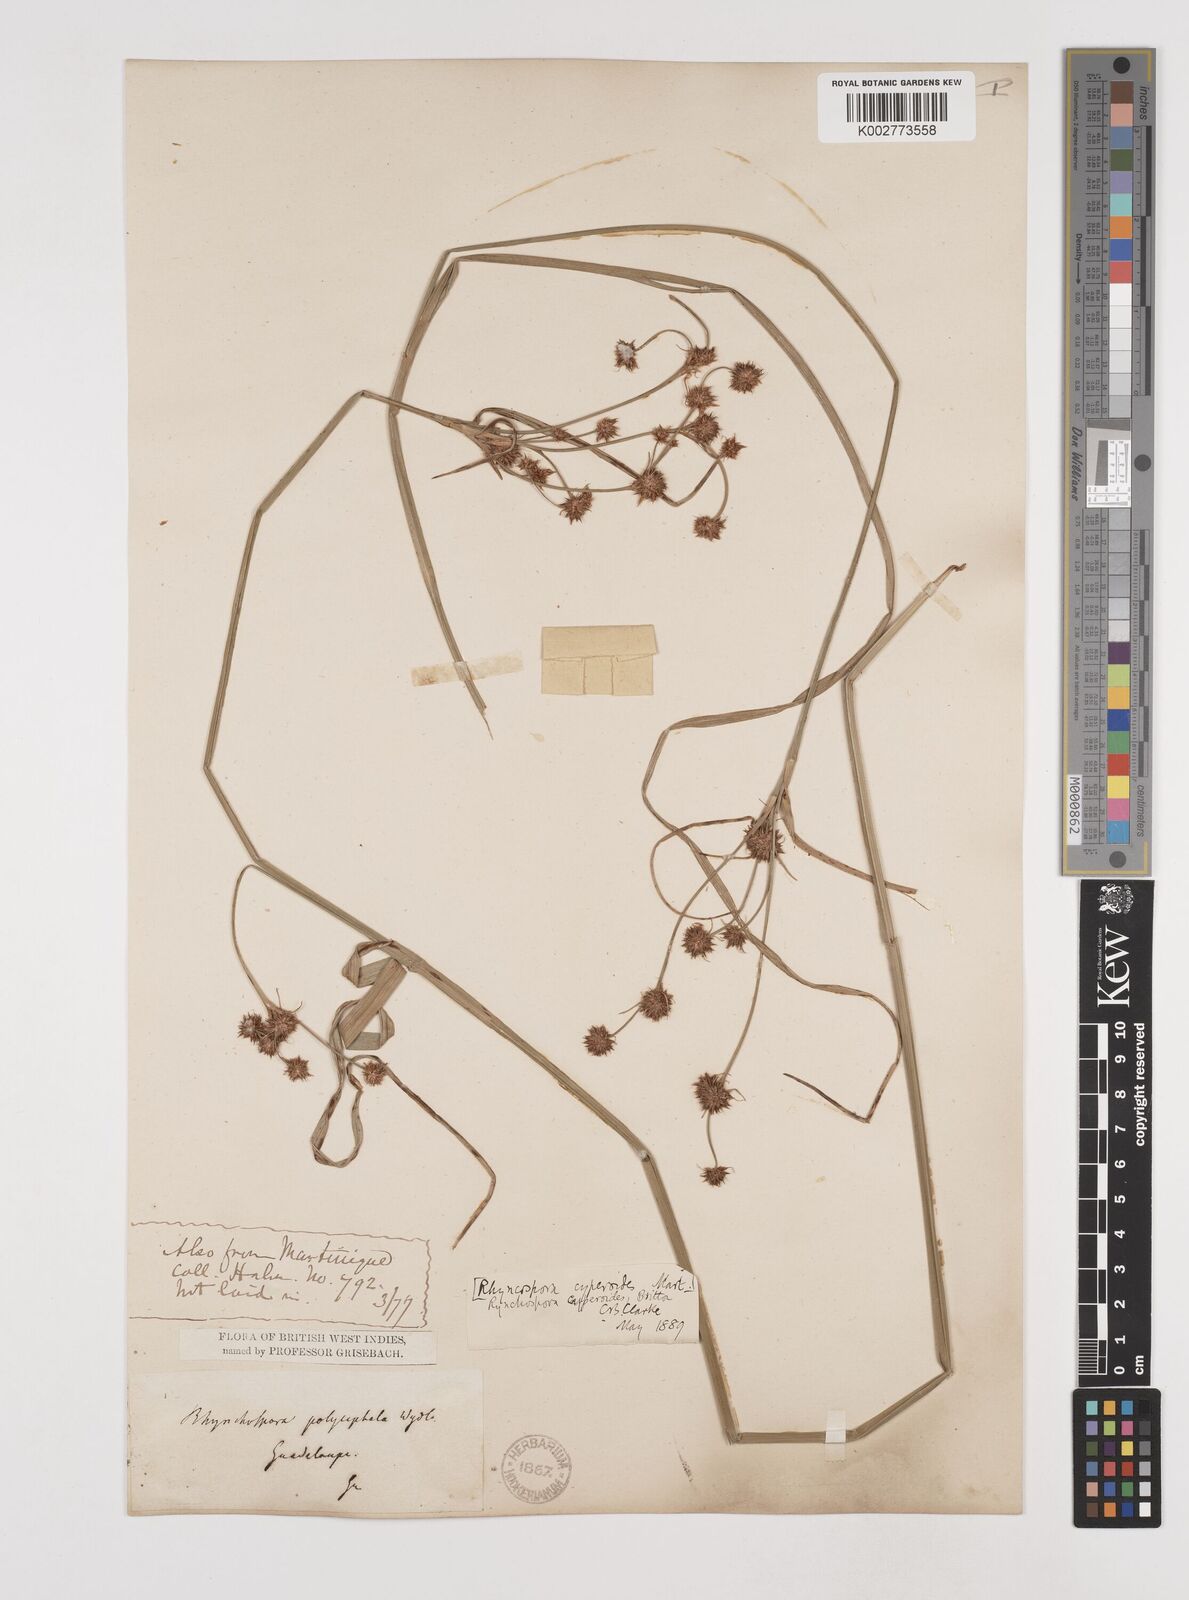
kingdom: Plantae
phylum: Tracheophyta
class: Liliopsida
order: Poales
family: Cyperaceae
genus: Rhynchospora
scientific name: Rhynchospora holoschoenoides
